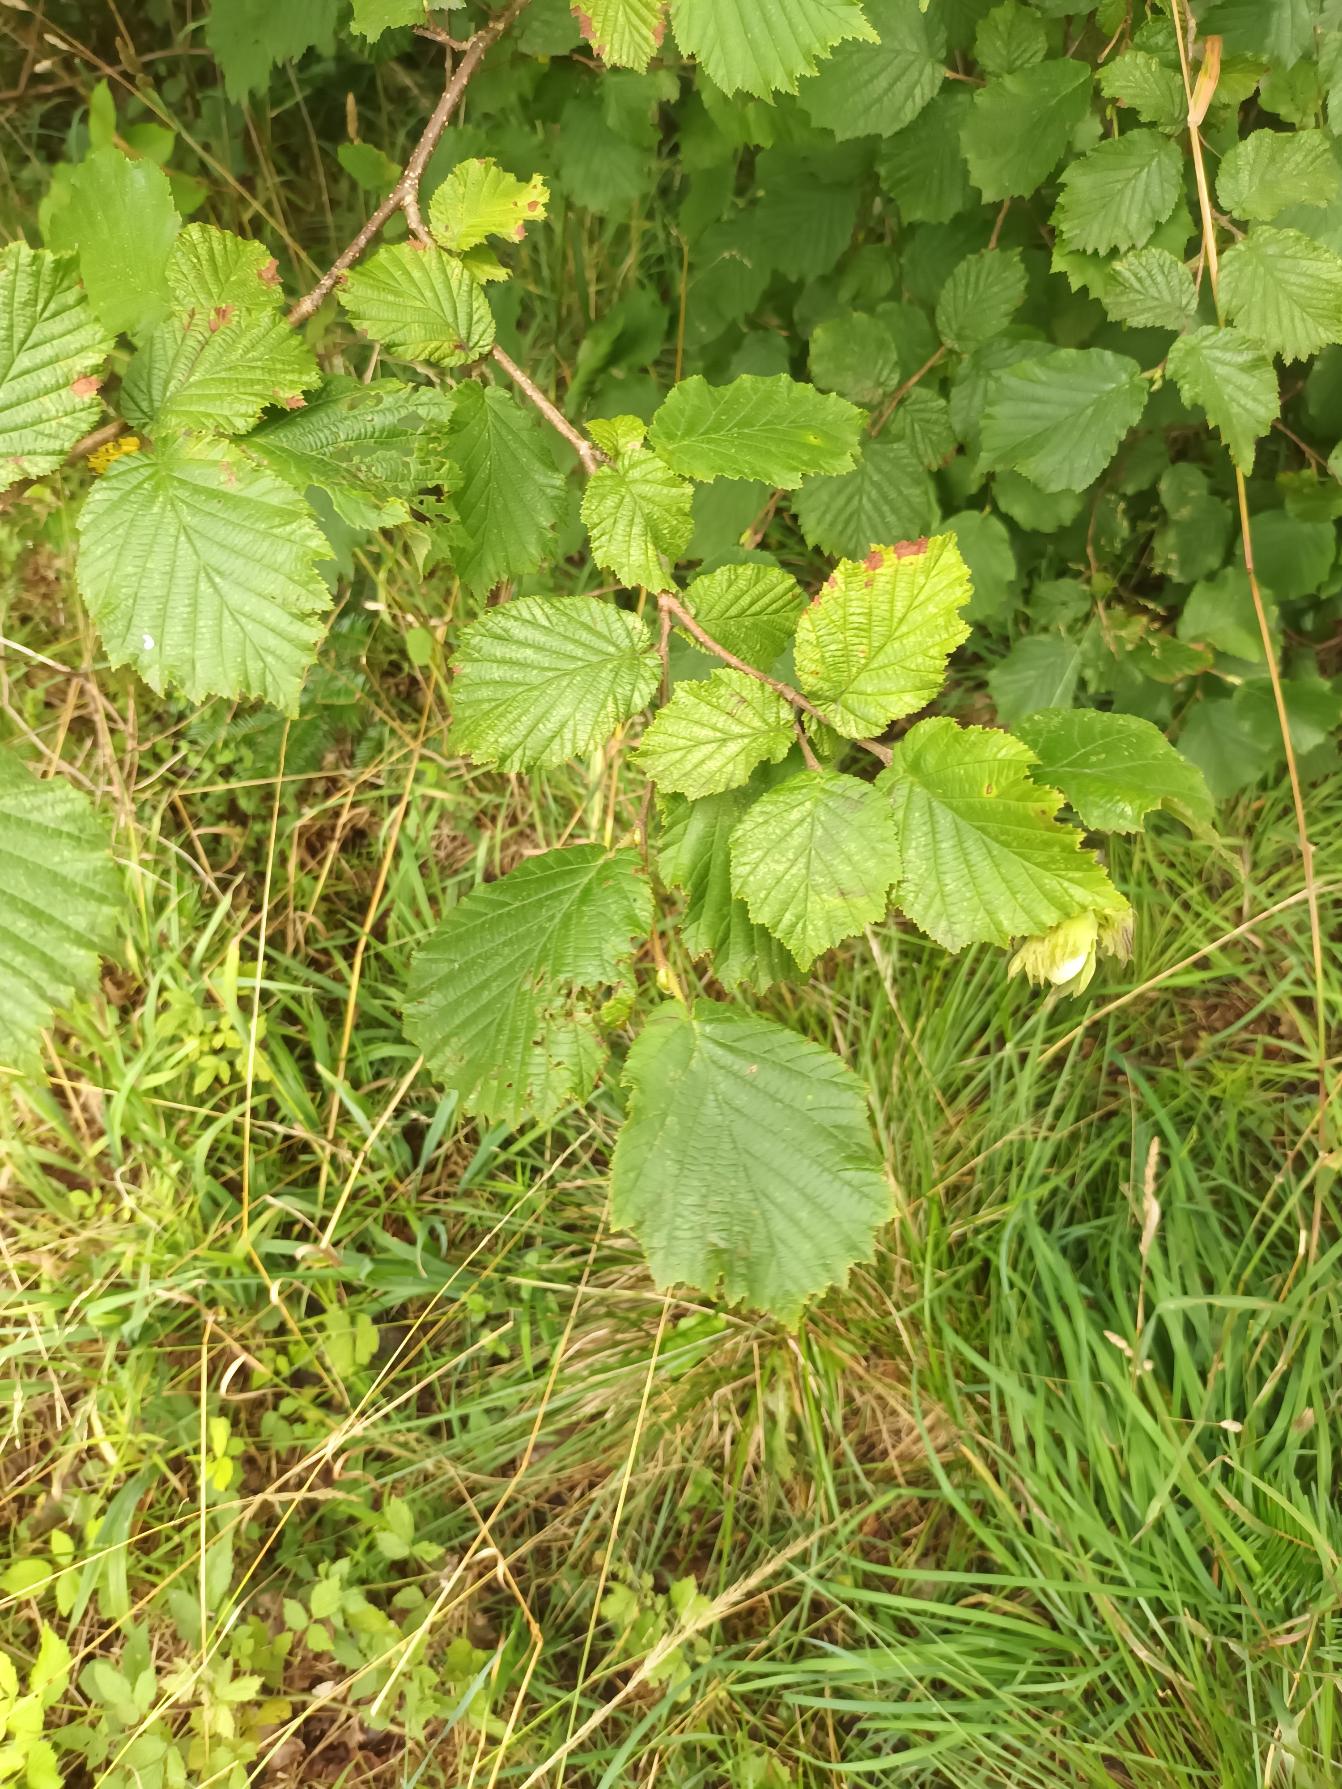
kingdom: Plantae
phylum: Tracheophyta
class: Magnoliopsida
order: Fagales
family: Betulaceae
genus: Corylus
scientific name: Corylus avellana
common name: Hassel
